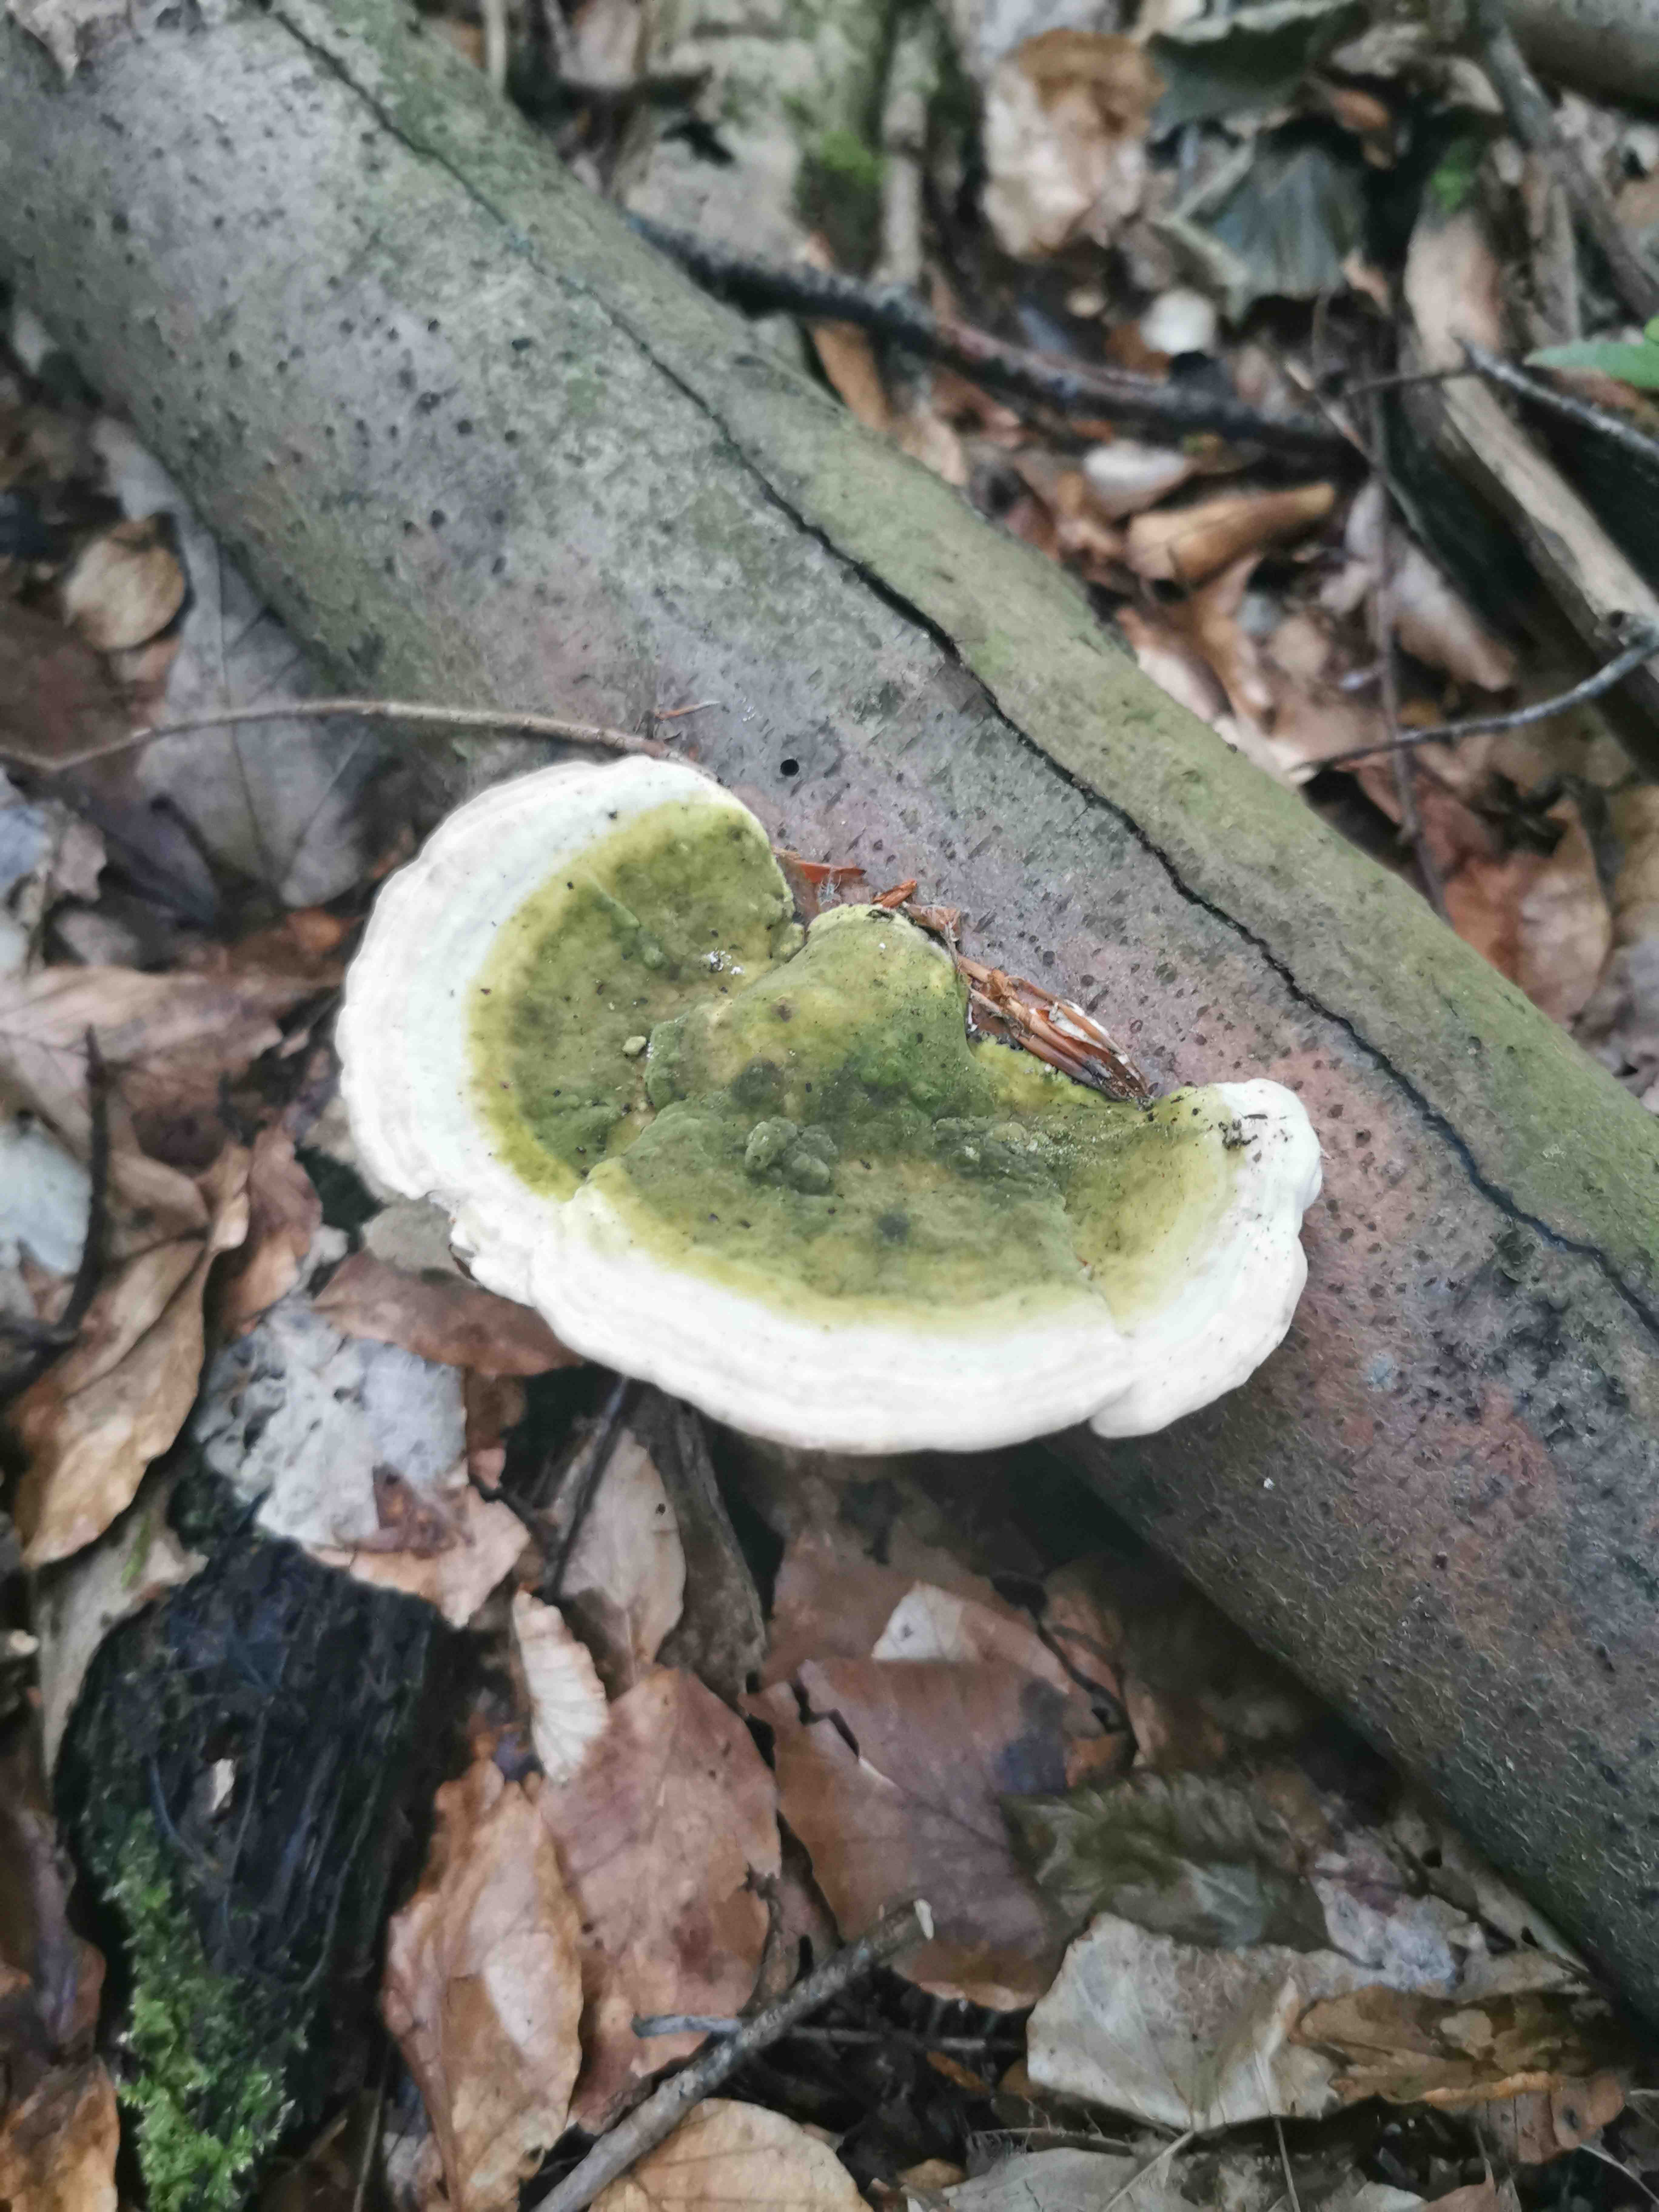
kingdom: Fungi
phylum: Basidiomycota
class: Agaricomycetes
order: Polyporales
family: Polyporaceae
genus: Trametes
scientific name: Trametes
